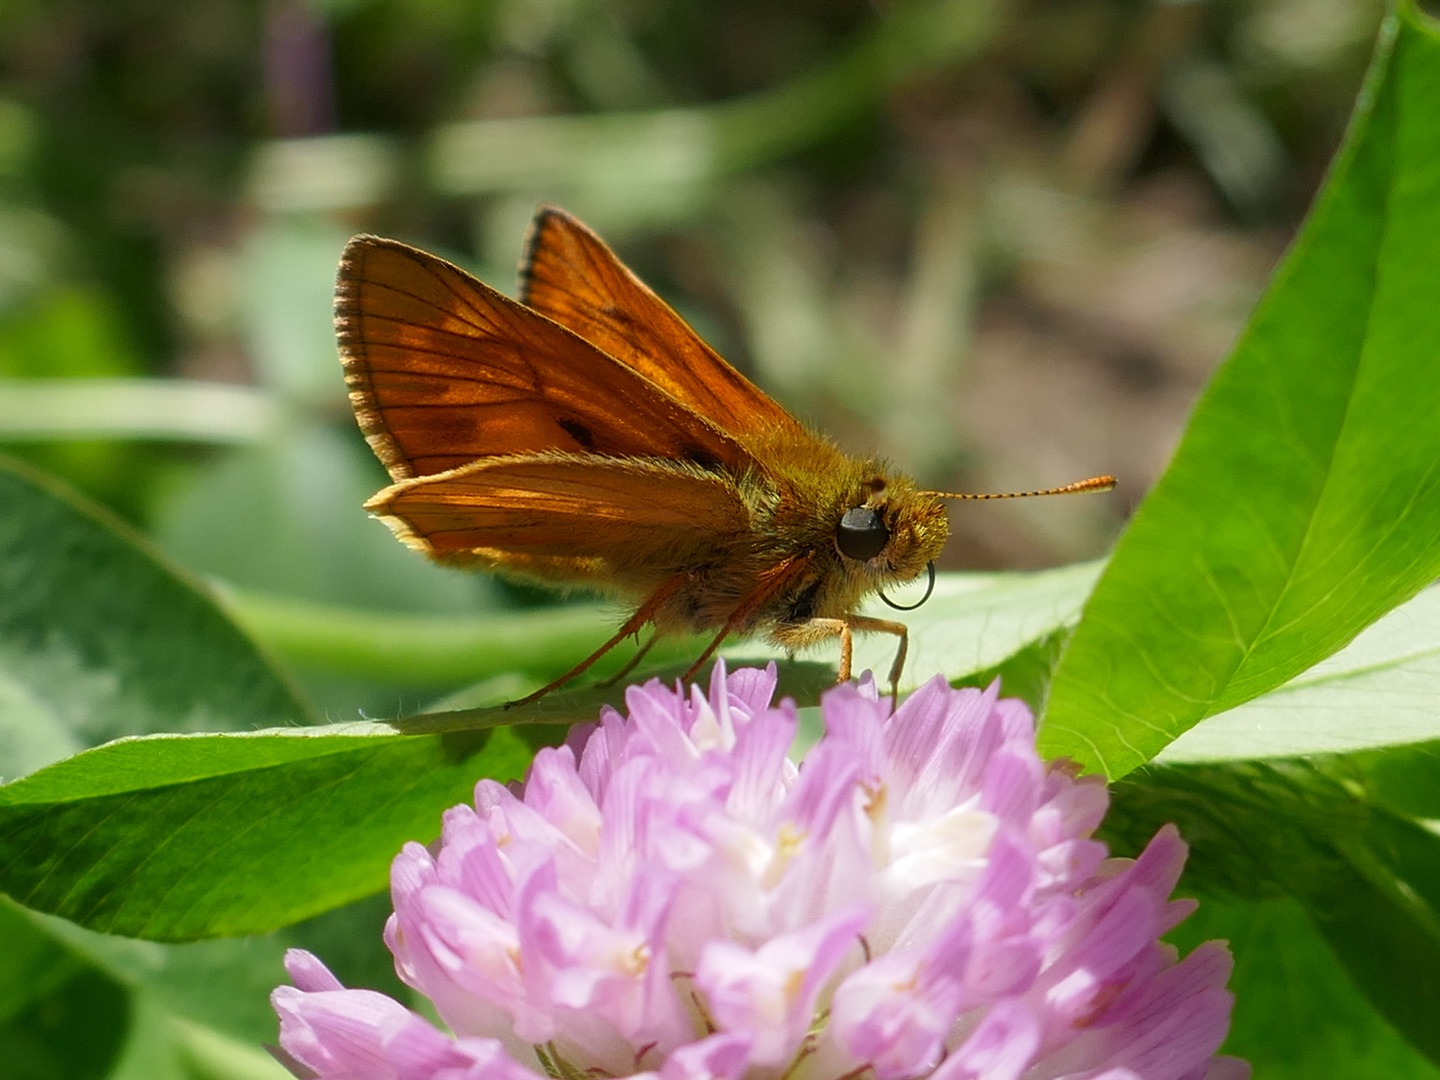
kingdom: Animalia
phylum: Arthropoda
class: Insecta
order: Lepidoptera
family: Hesperiidae
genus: Ochlodes
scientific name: Ochlodes venata
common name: Stor bredpande
